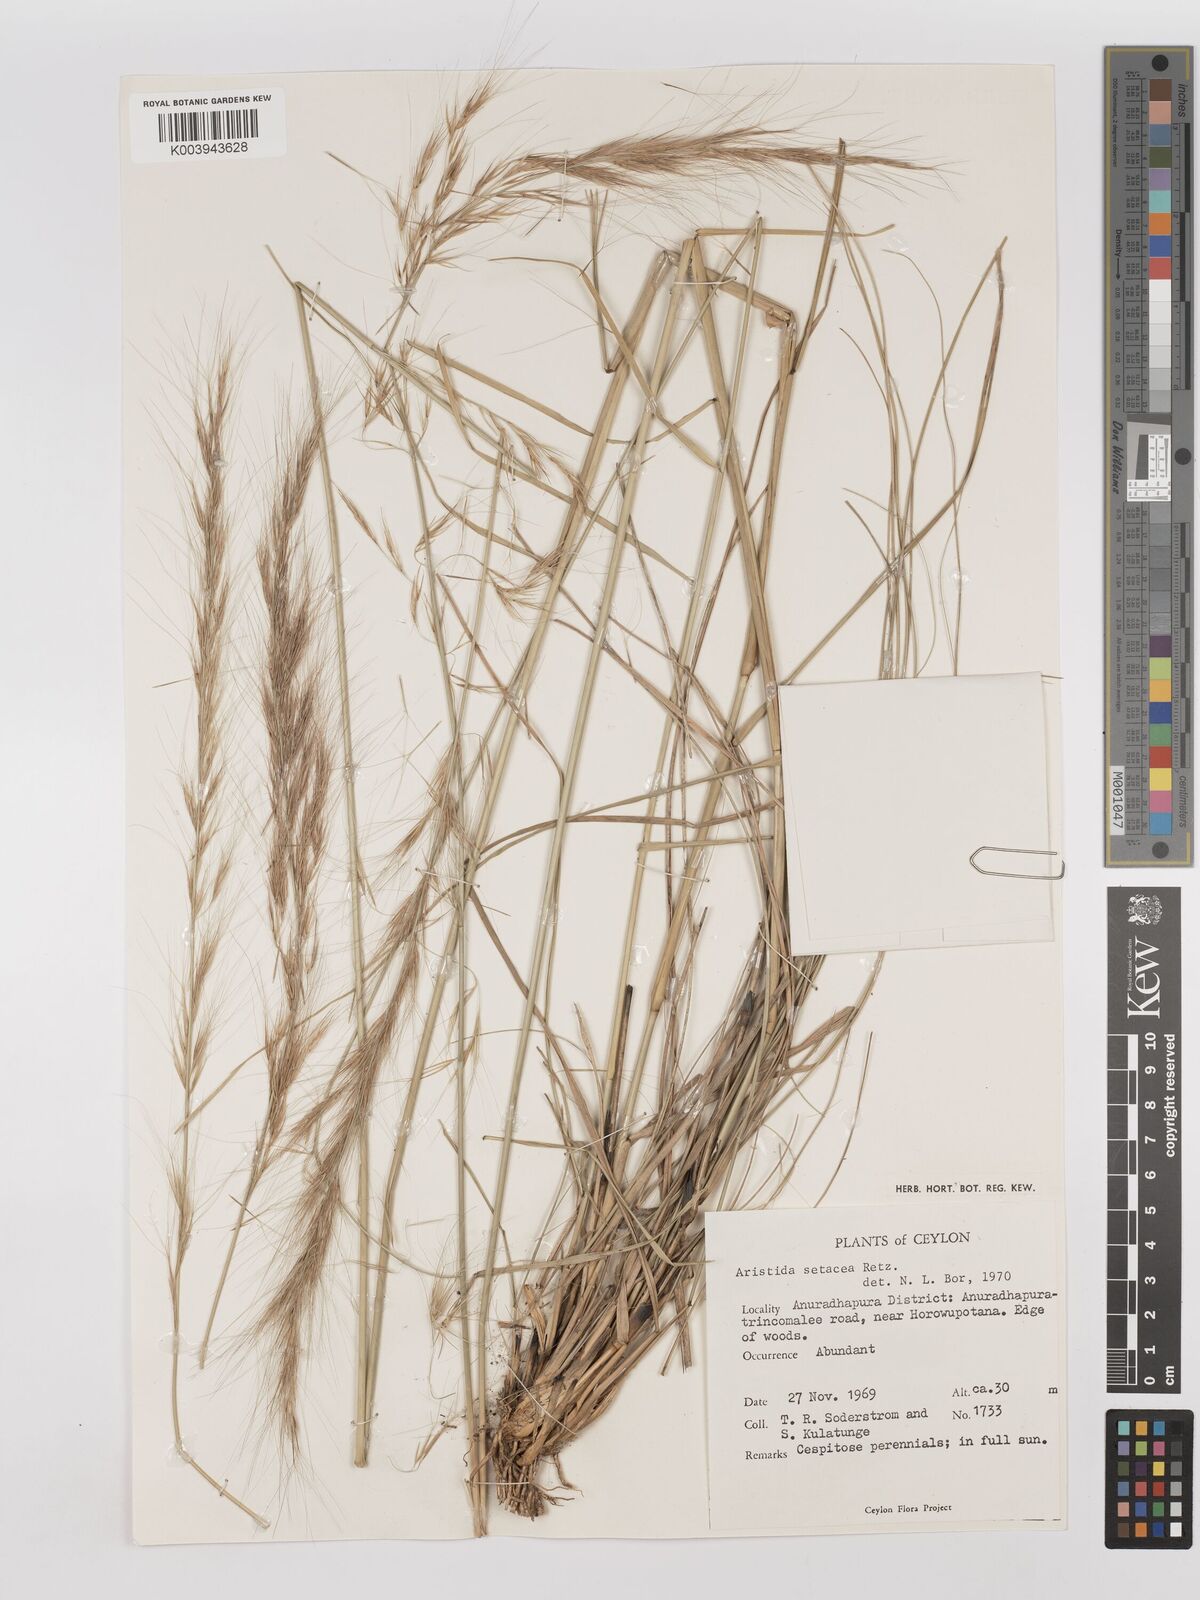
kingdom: Plantae
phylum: Tracheophyta
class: Liliopsida
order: Poales
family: Poaceae
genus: Aristida
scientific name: Aristida setacea
